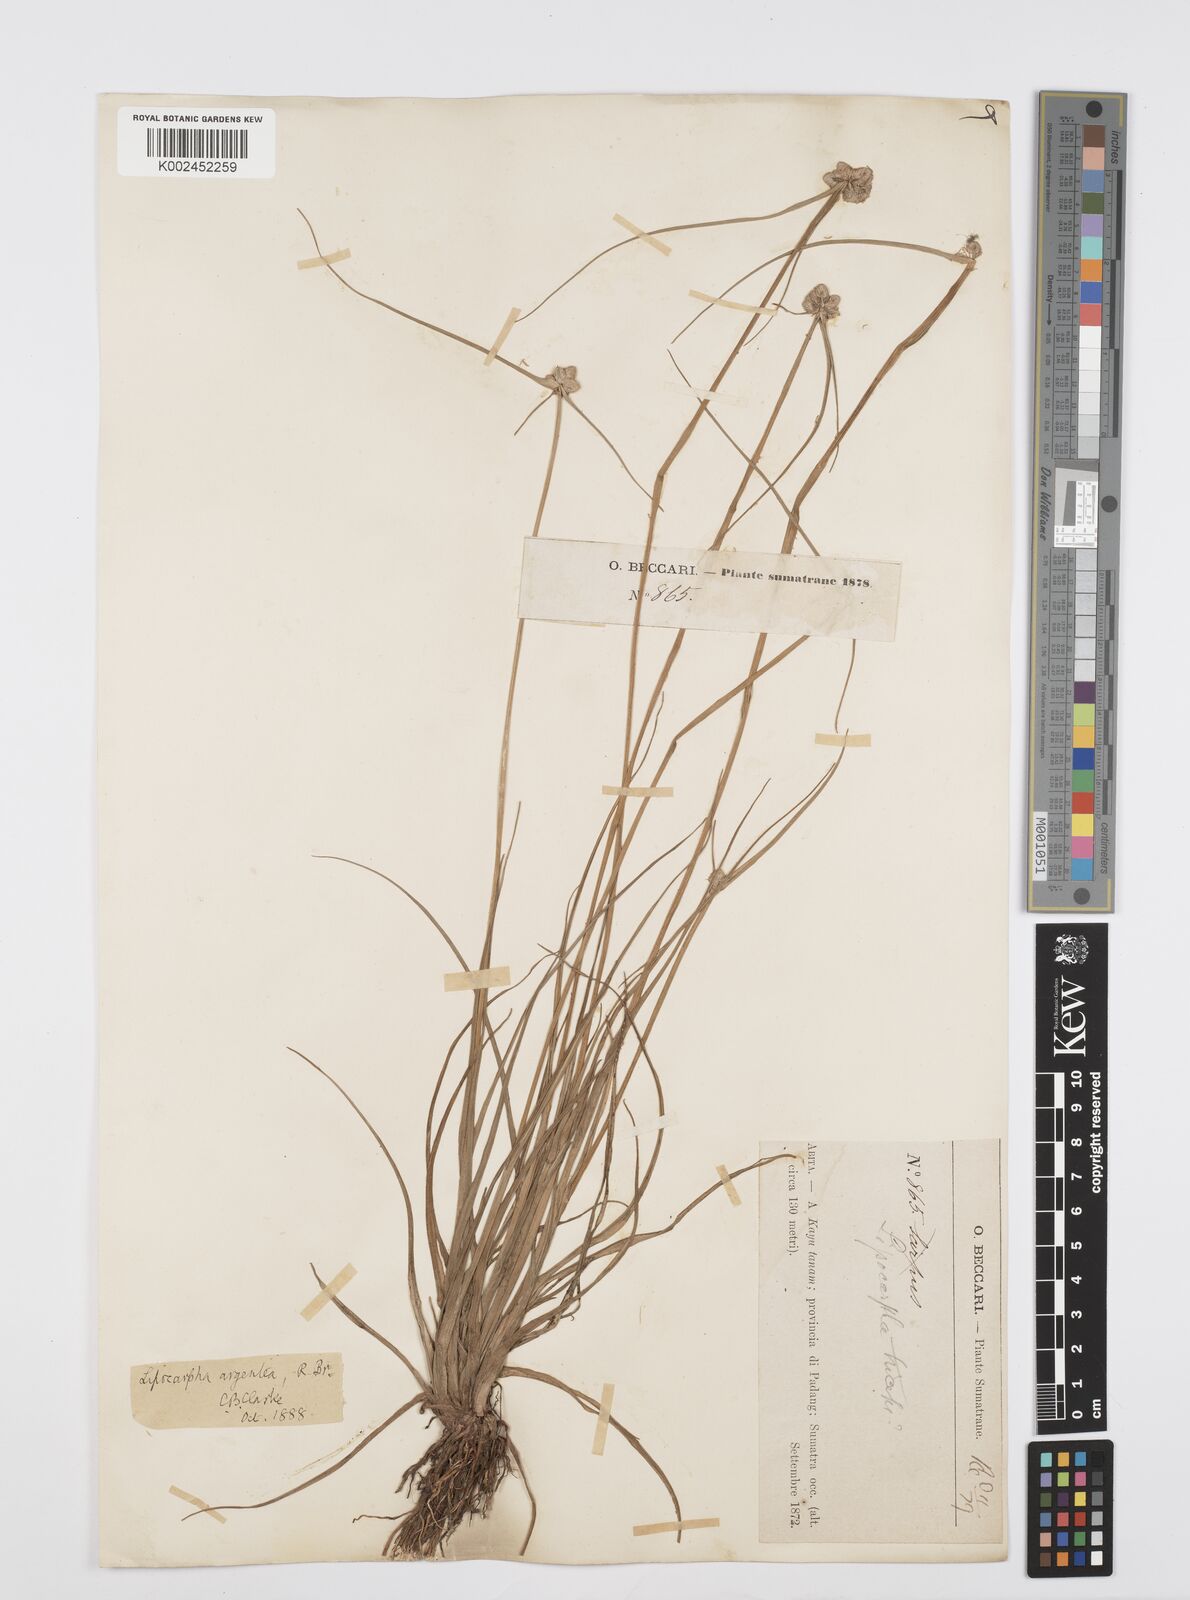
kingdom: Plantae
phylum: Tracheophyta
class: Liliopsida
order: Poales
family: Cyperaceae
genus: Cyperus
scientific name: Cyperus
